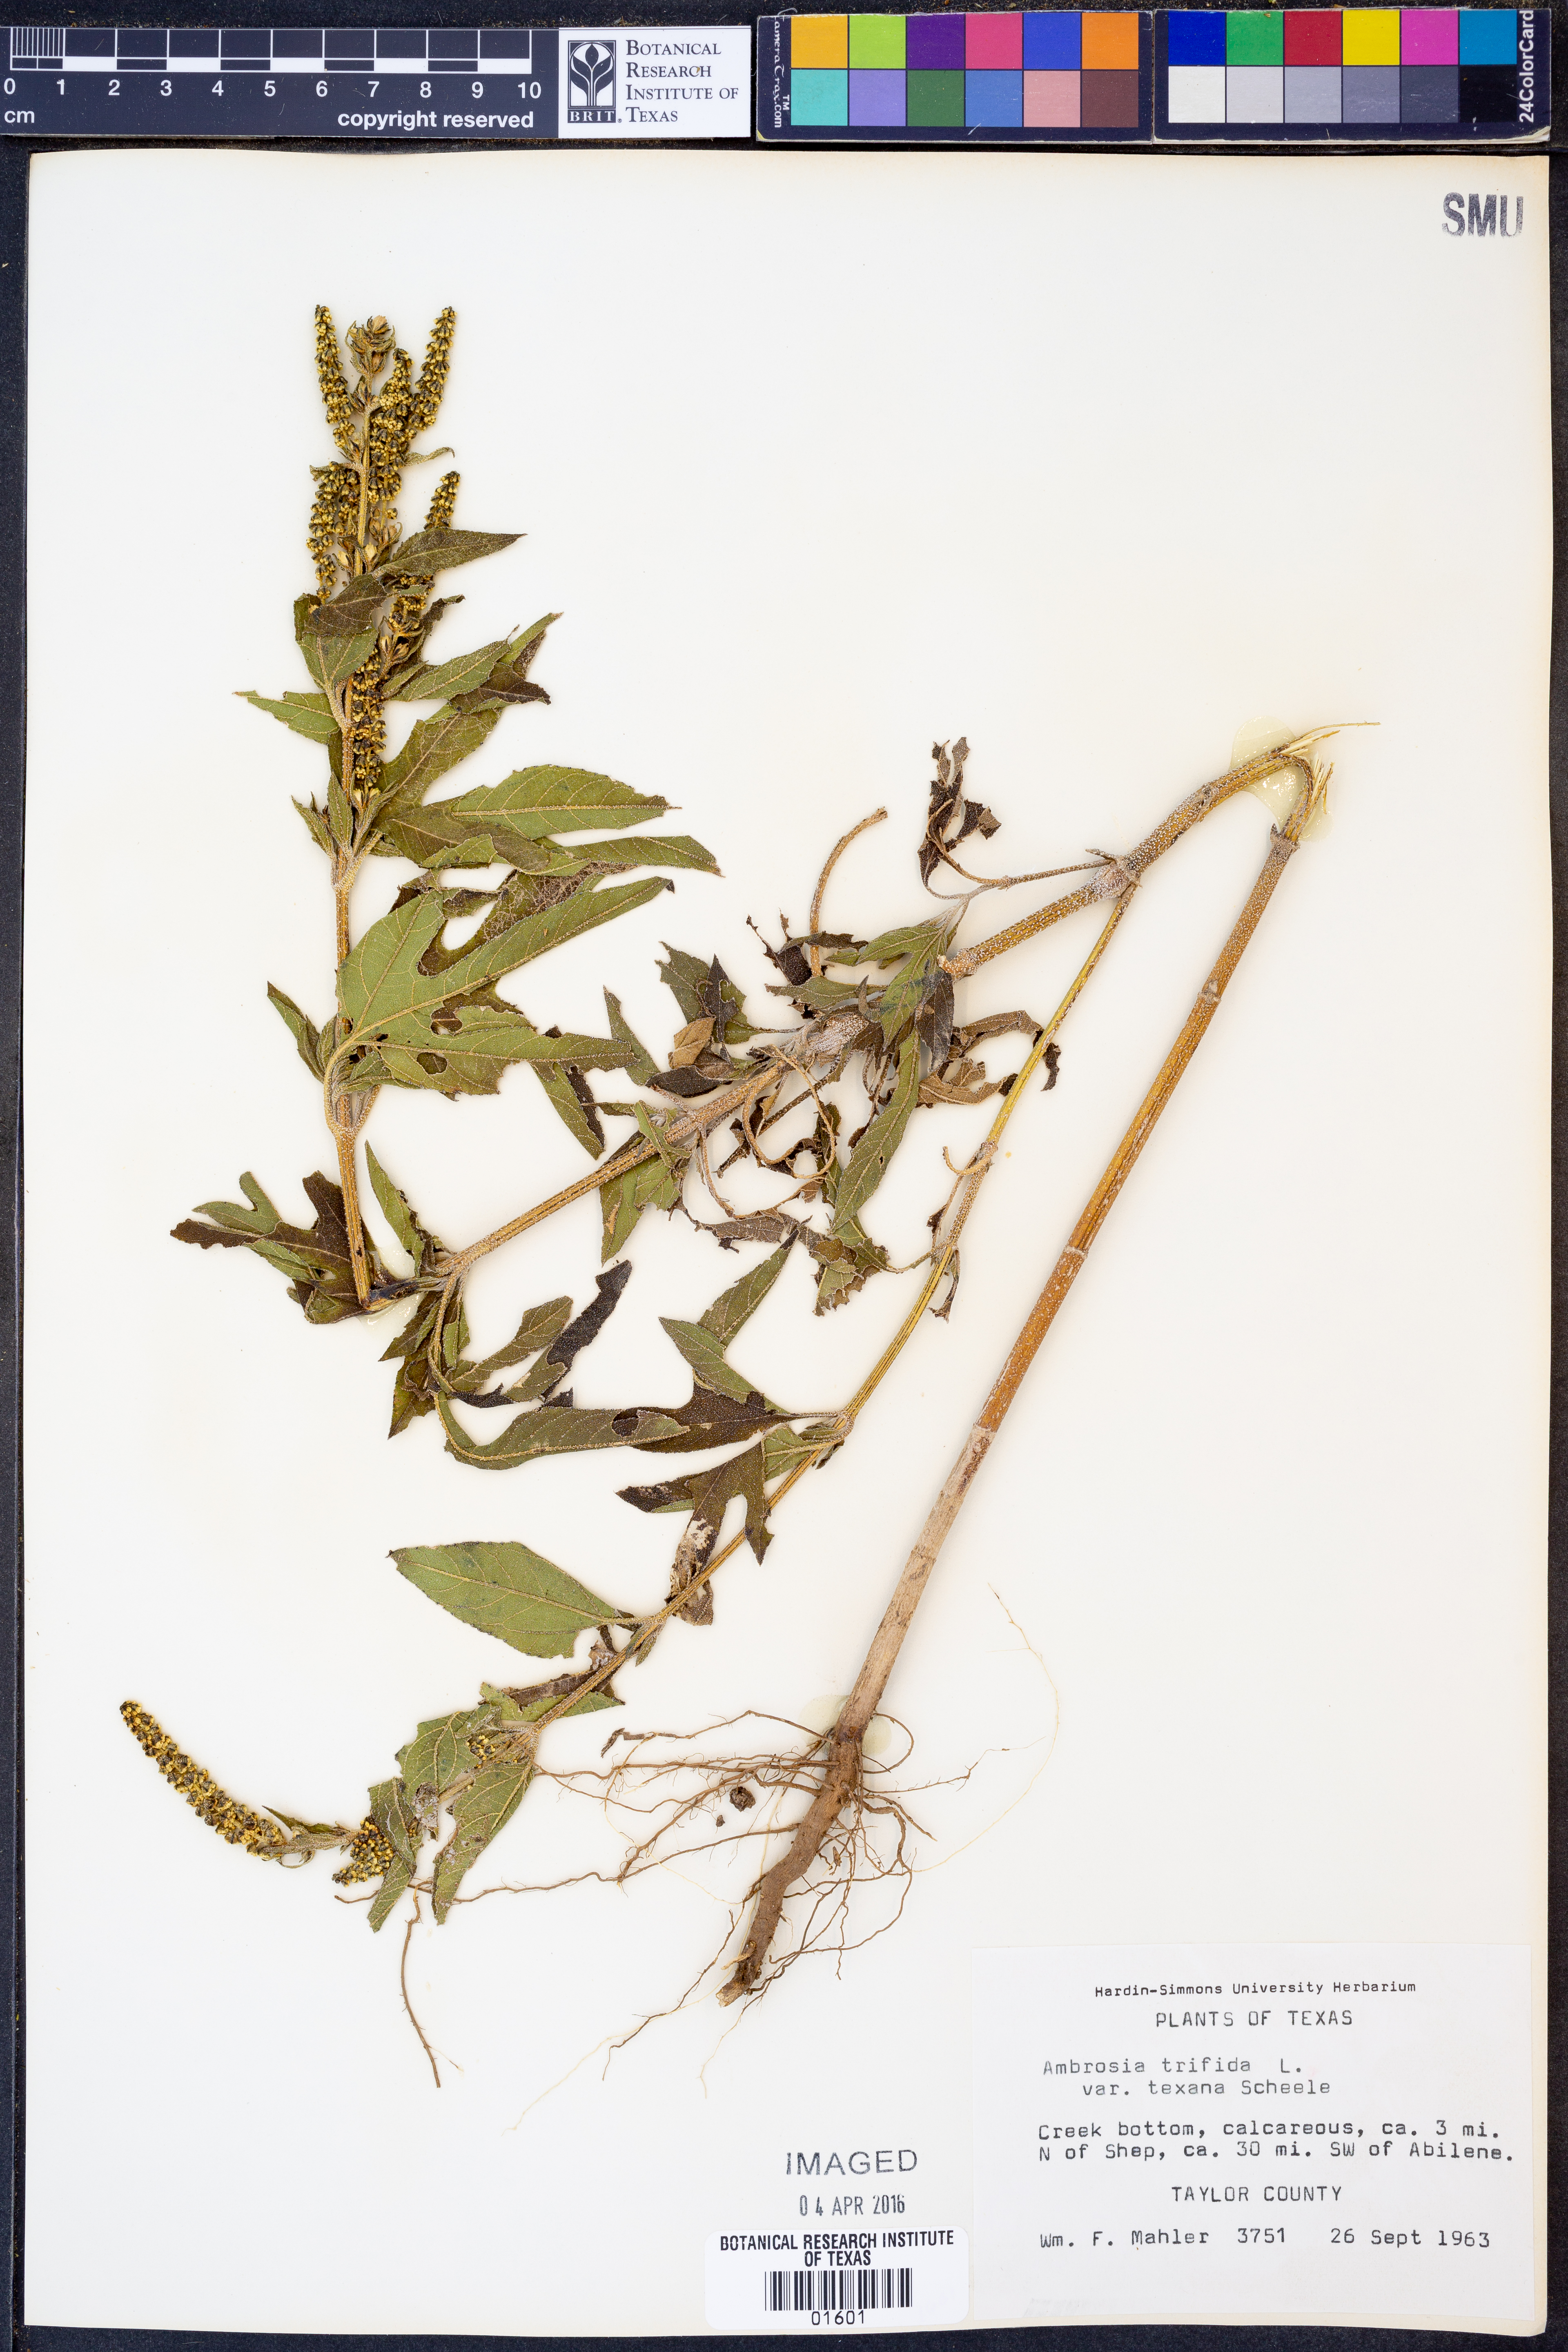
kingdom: Plantae
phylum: Tracheophyta
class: Magnoliopsida
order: Asterales
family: Asteraceae
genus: Ambrosia
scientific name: Ambrosia trifida
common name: Giant ragweed
